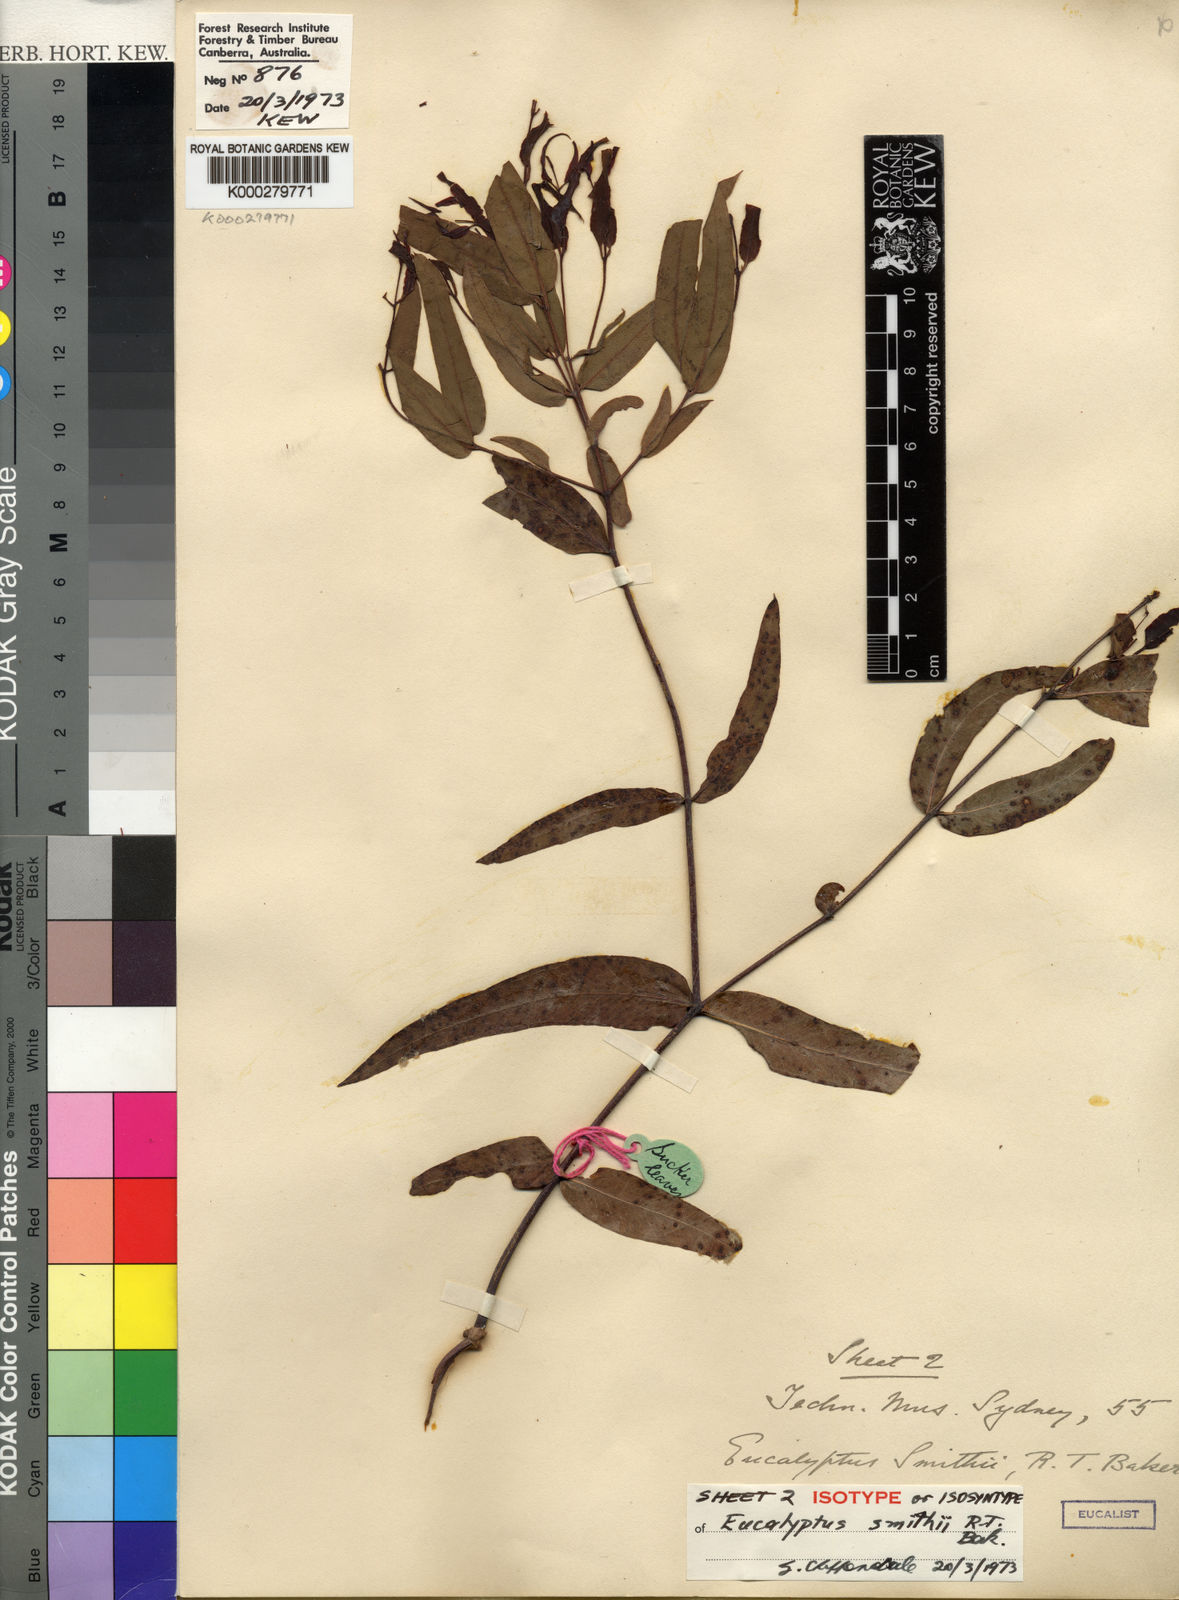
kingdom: Plantae
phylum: Tracheophyta
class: Magnoliopsida
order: Myrtales
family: Myrtaceae
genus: Eucalyptus
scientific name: Eucalyptus smithii
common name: Blackbutt-peppermint
